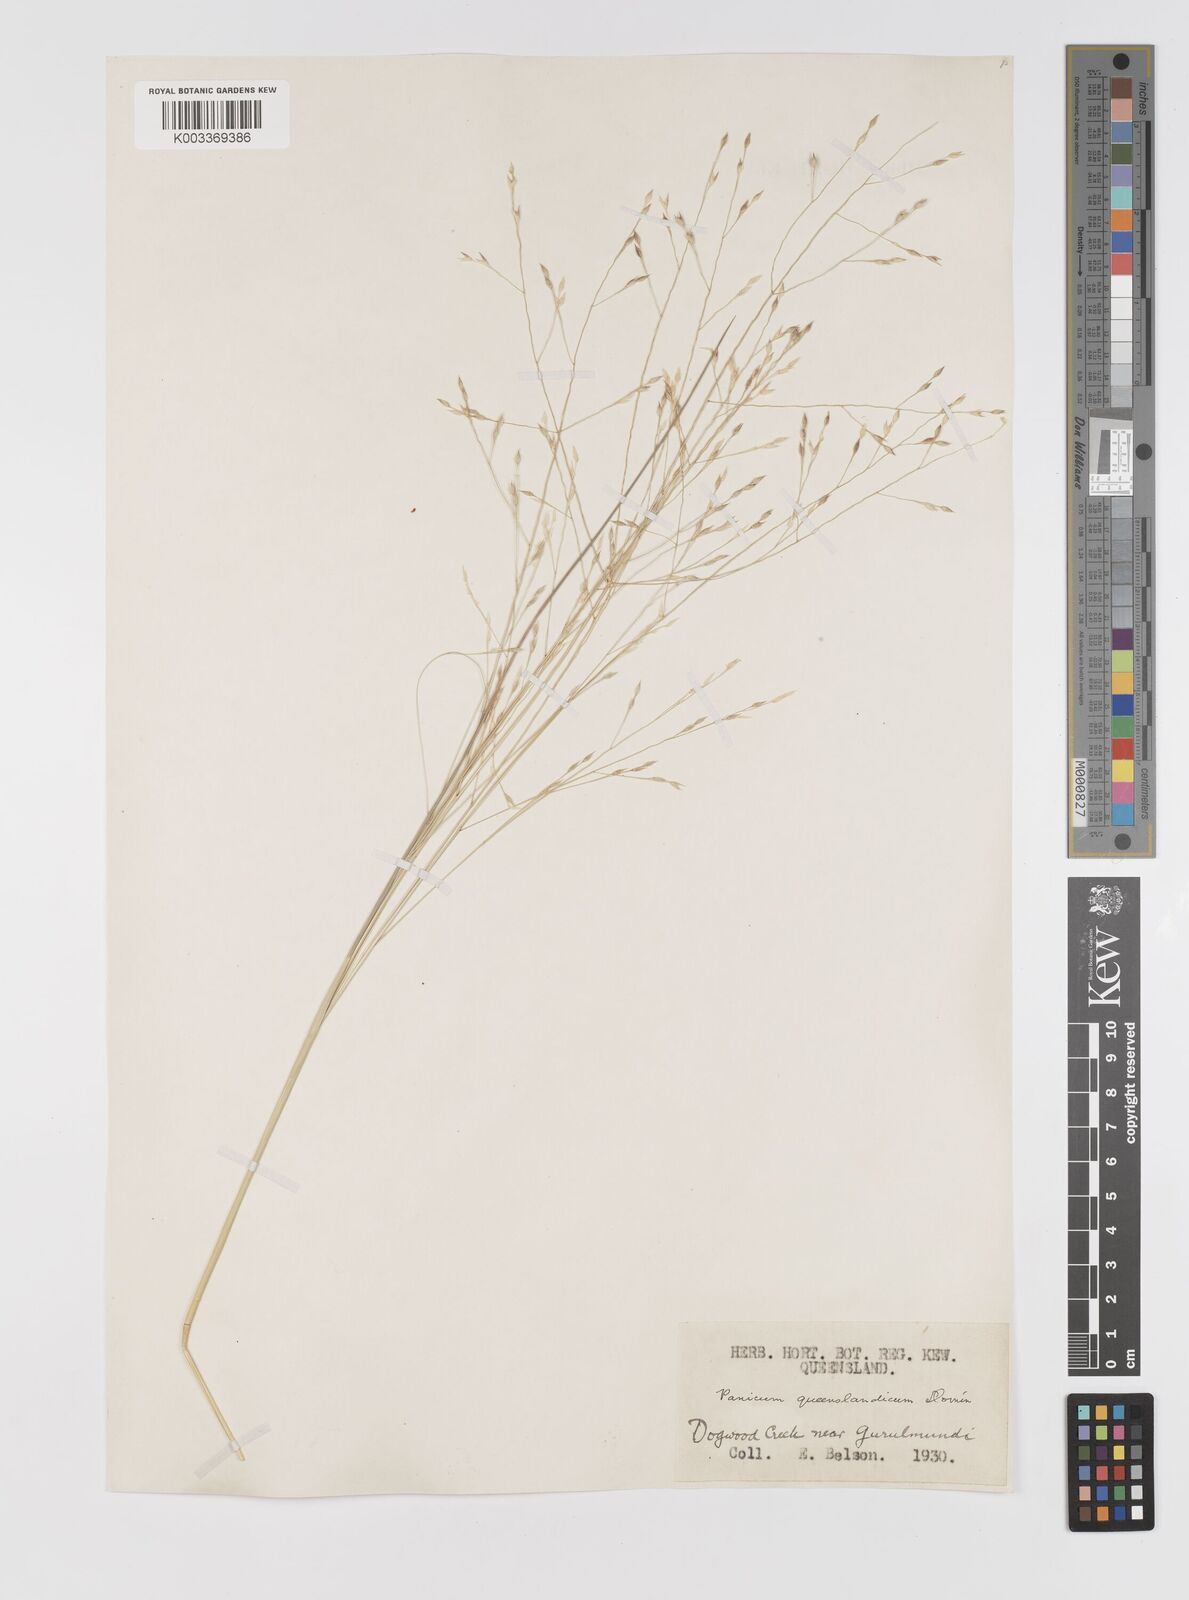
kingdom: Plantae
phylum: Tracheophyta
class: Liliopsida
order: Poales
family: Poaceae
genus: Panicum
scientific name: Panicum queenslandicum
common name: Yabila grass
